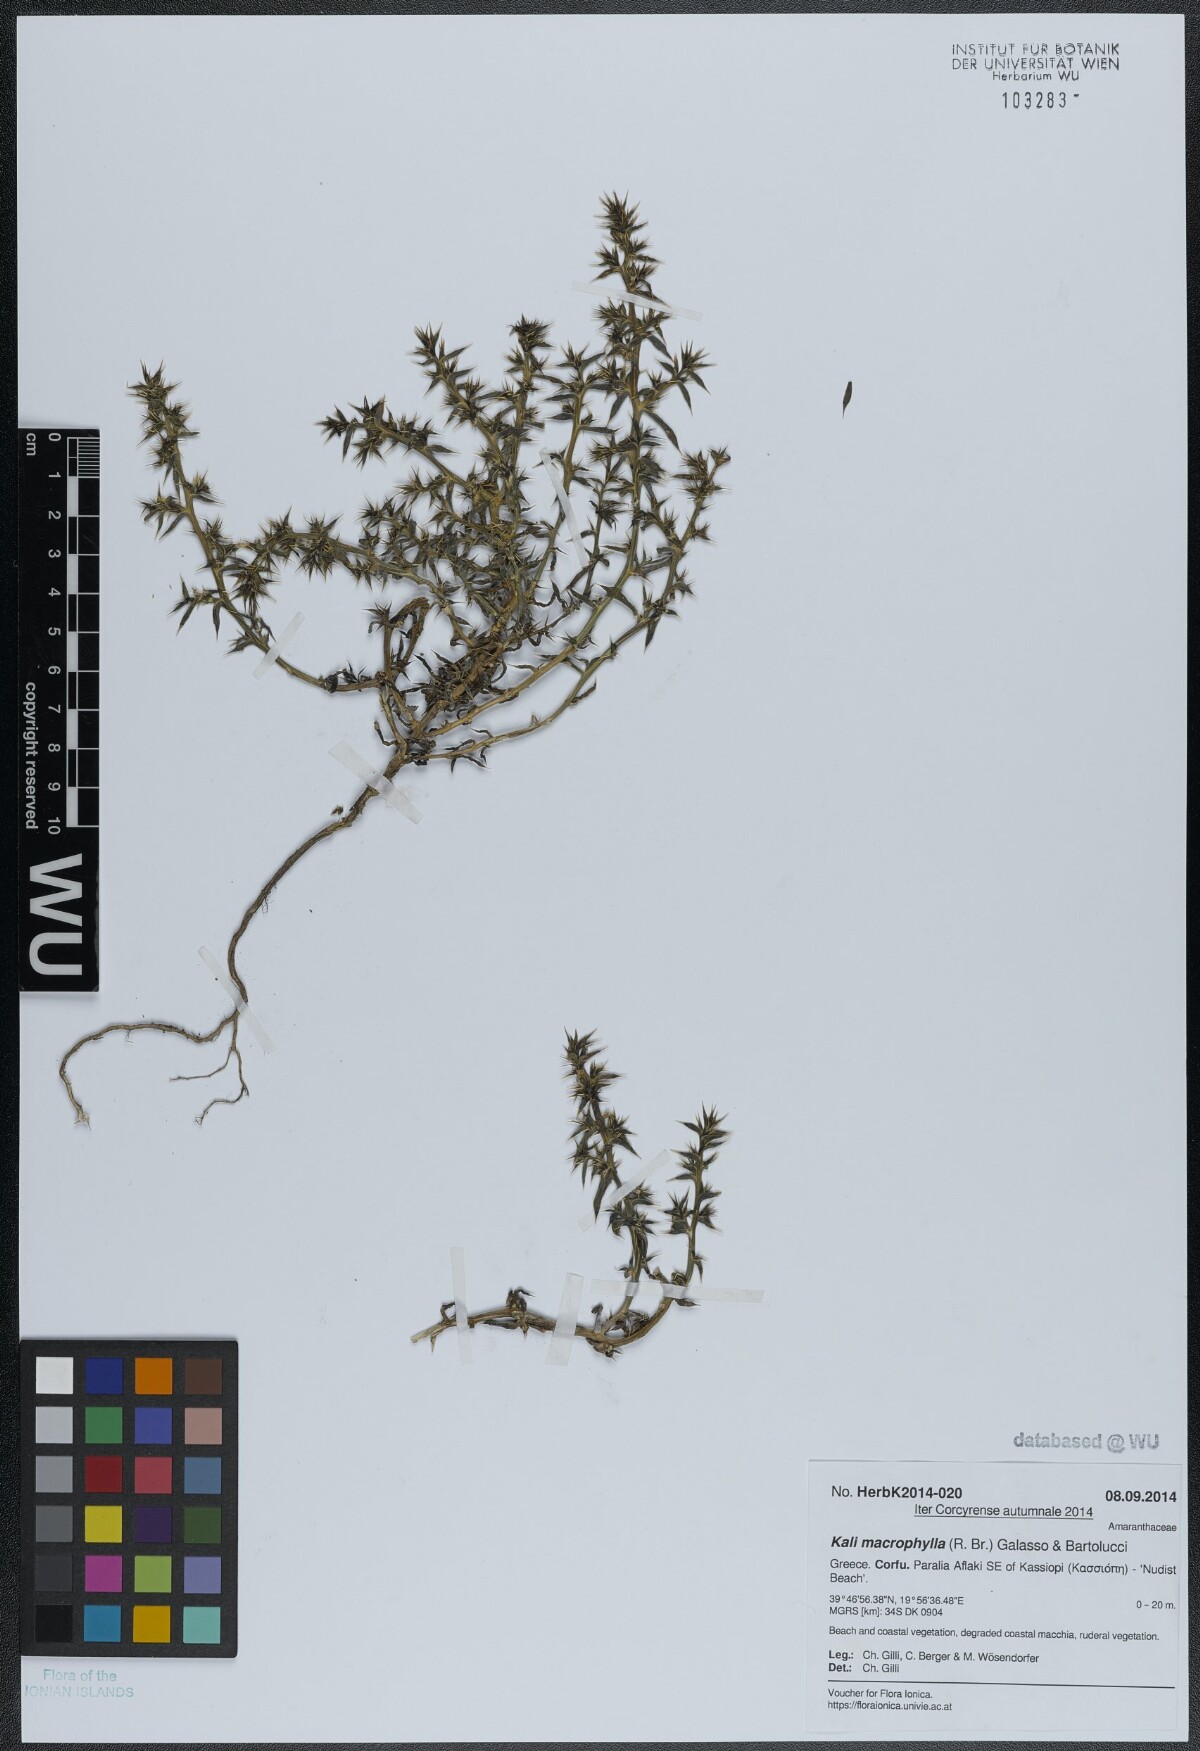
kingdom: Plantae
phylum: Tracheophyta
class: Magnoliopsida
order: Caryophyllales
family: Amaranthaceae
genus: Salsola
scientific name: Salsola australis
